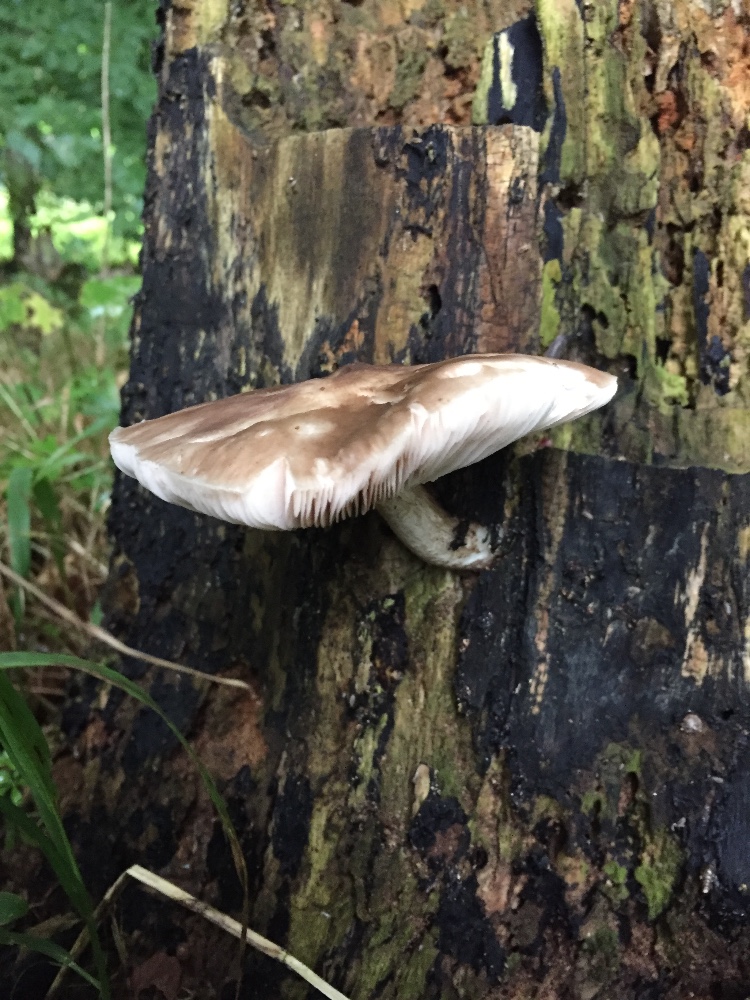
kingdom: Fungi
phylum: Basidiomycota
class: Agaricomycetes
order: Agaricales
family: Pluteaceae
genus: Pluteus
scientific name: Pluteus cervinus
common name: sodfarvet skærmhat
